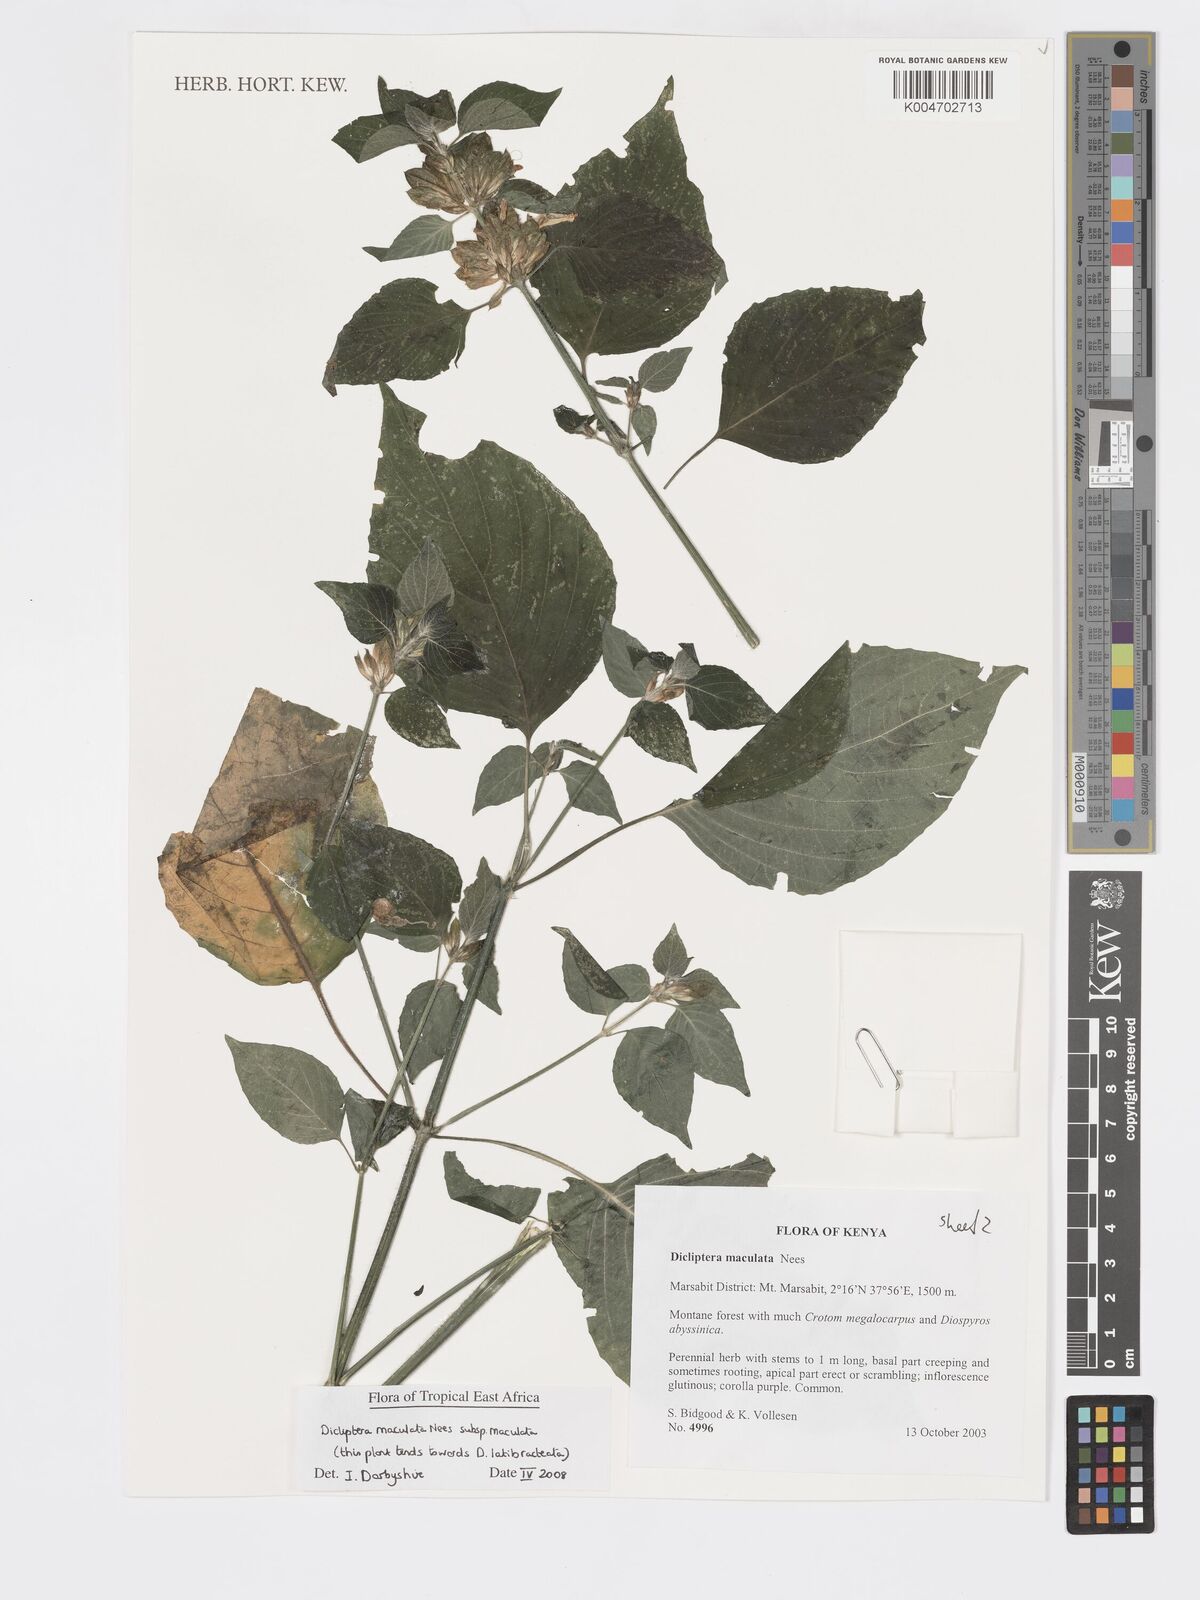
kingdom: Plantae
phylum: Tracheophyta
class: Magnoliopsida
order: Lamiales
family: Acanthaceae
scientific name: Acanthaceae
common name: Acanthaceae
